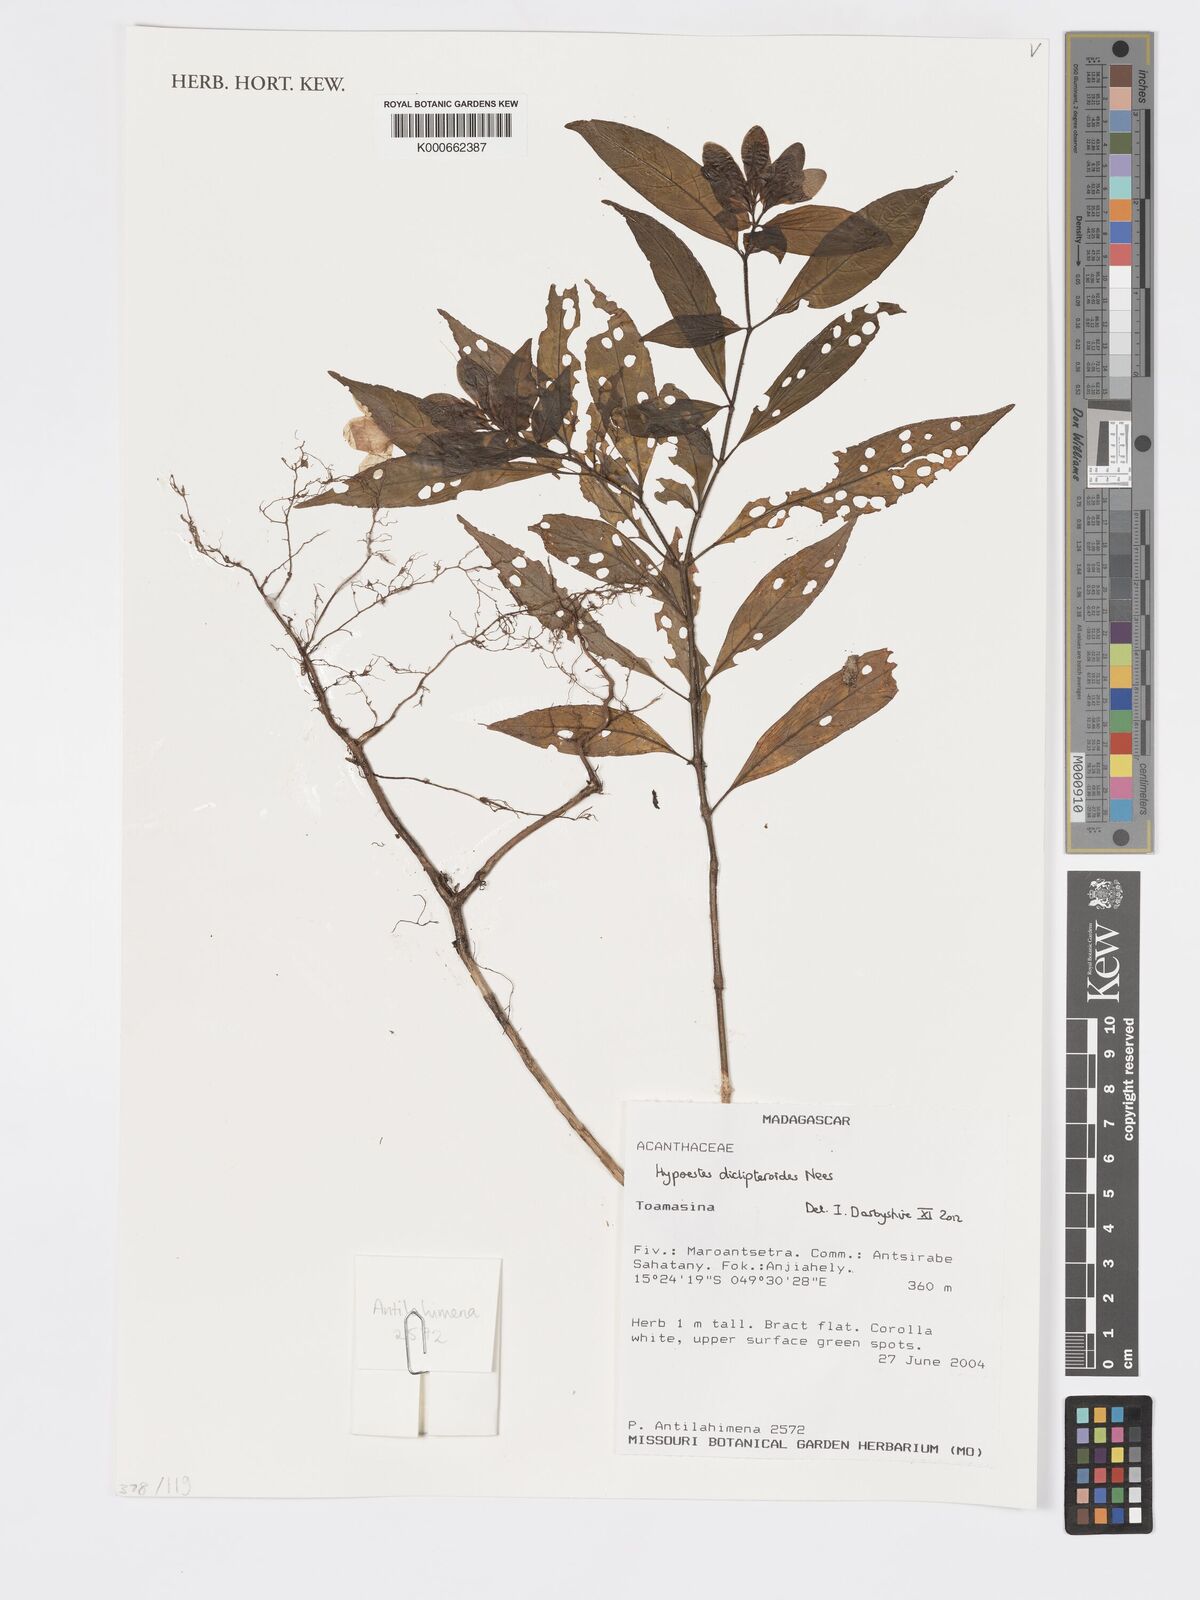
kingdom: Plantae
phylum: Tracheophyta
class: Magnoliopsida
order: Lamiales
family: Acanthaceae
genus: Hypoestes
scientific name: Hypoestes diclipteroides
